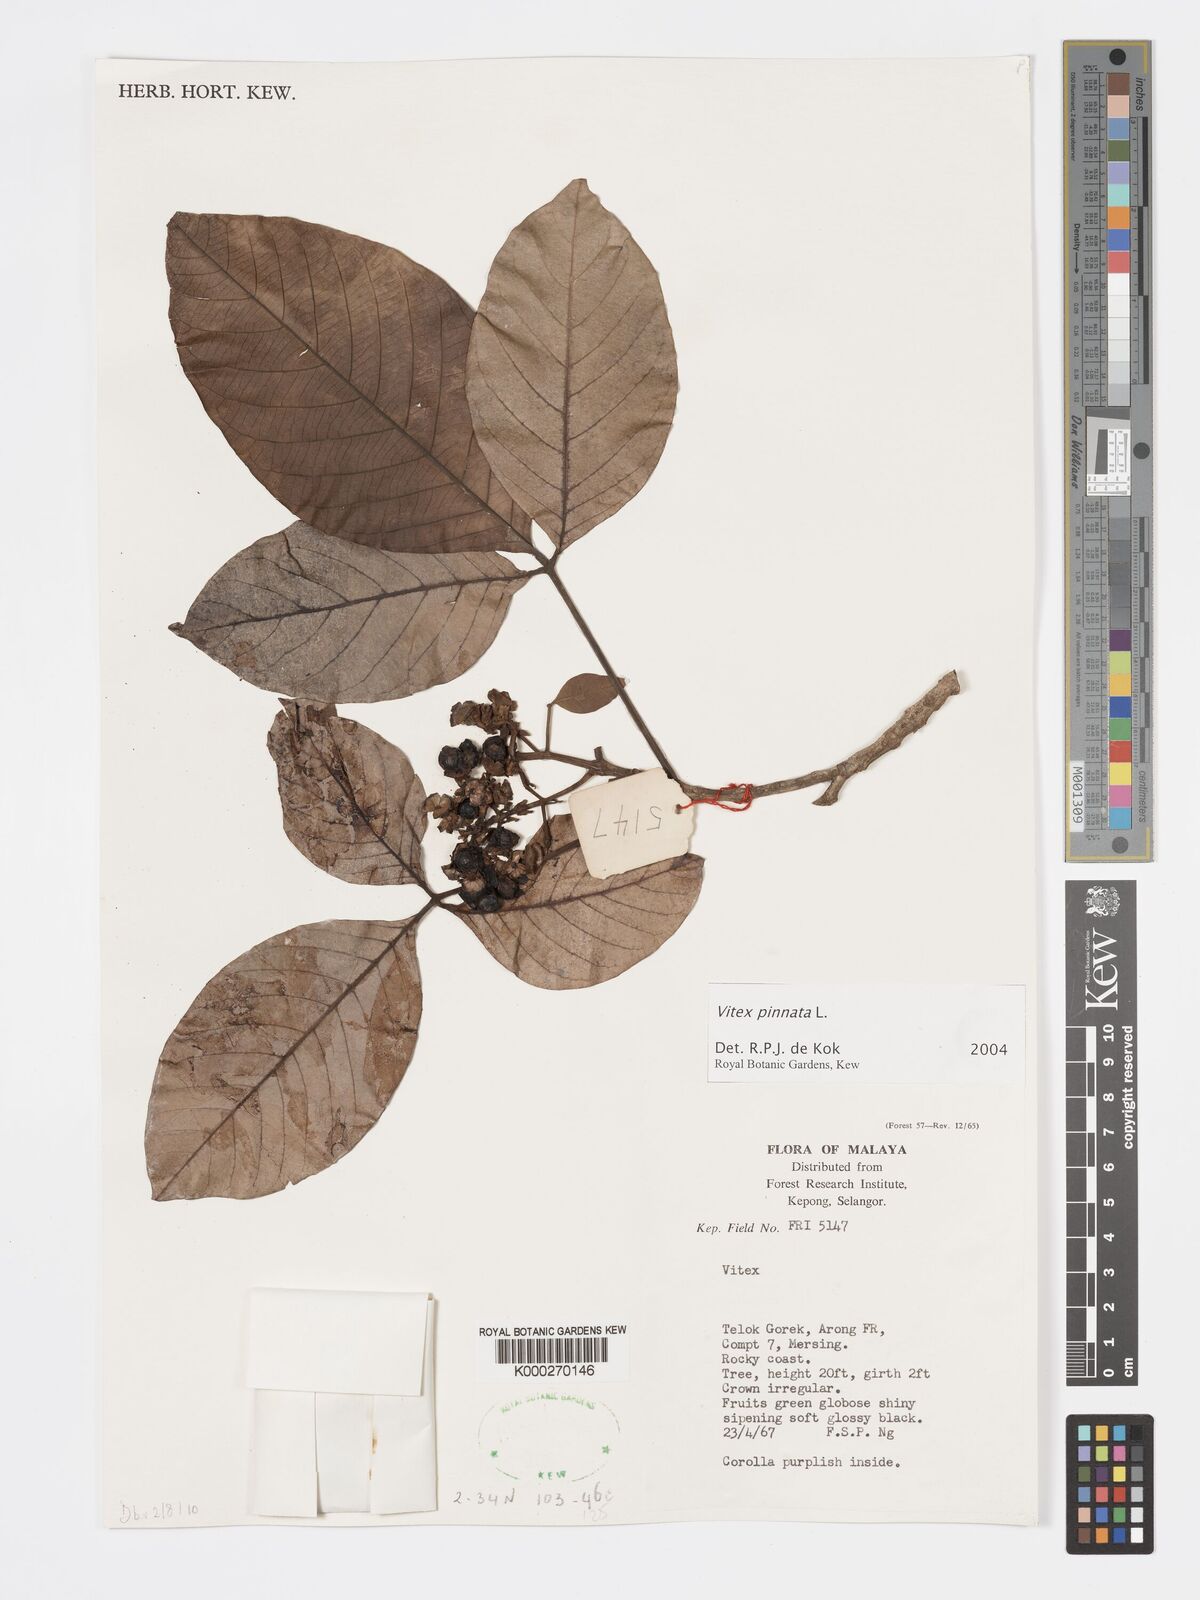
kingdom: Plantae
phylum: Tracheophyta
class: Magnoliopsida
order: Lamiales
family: Lamiaceae
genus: Vitex
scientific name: Vitex pinnata
